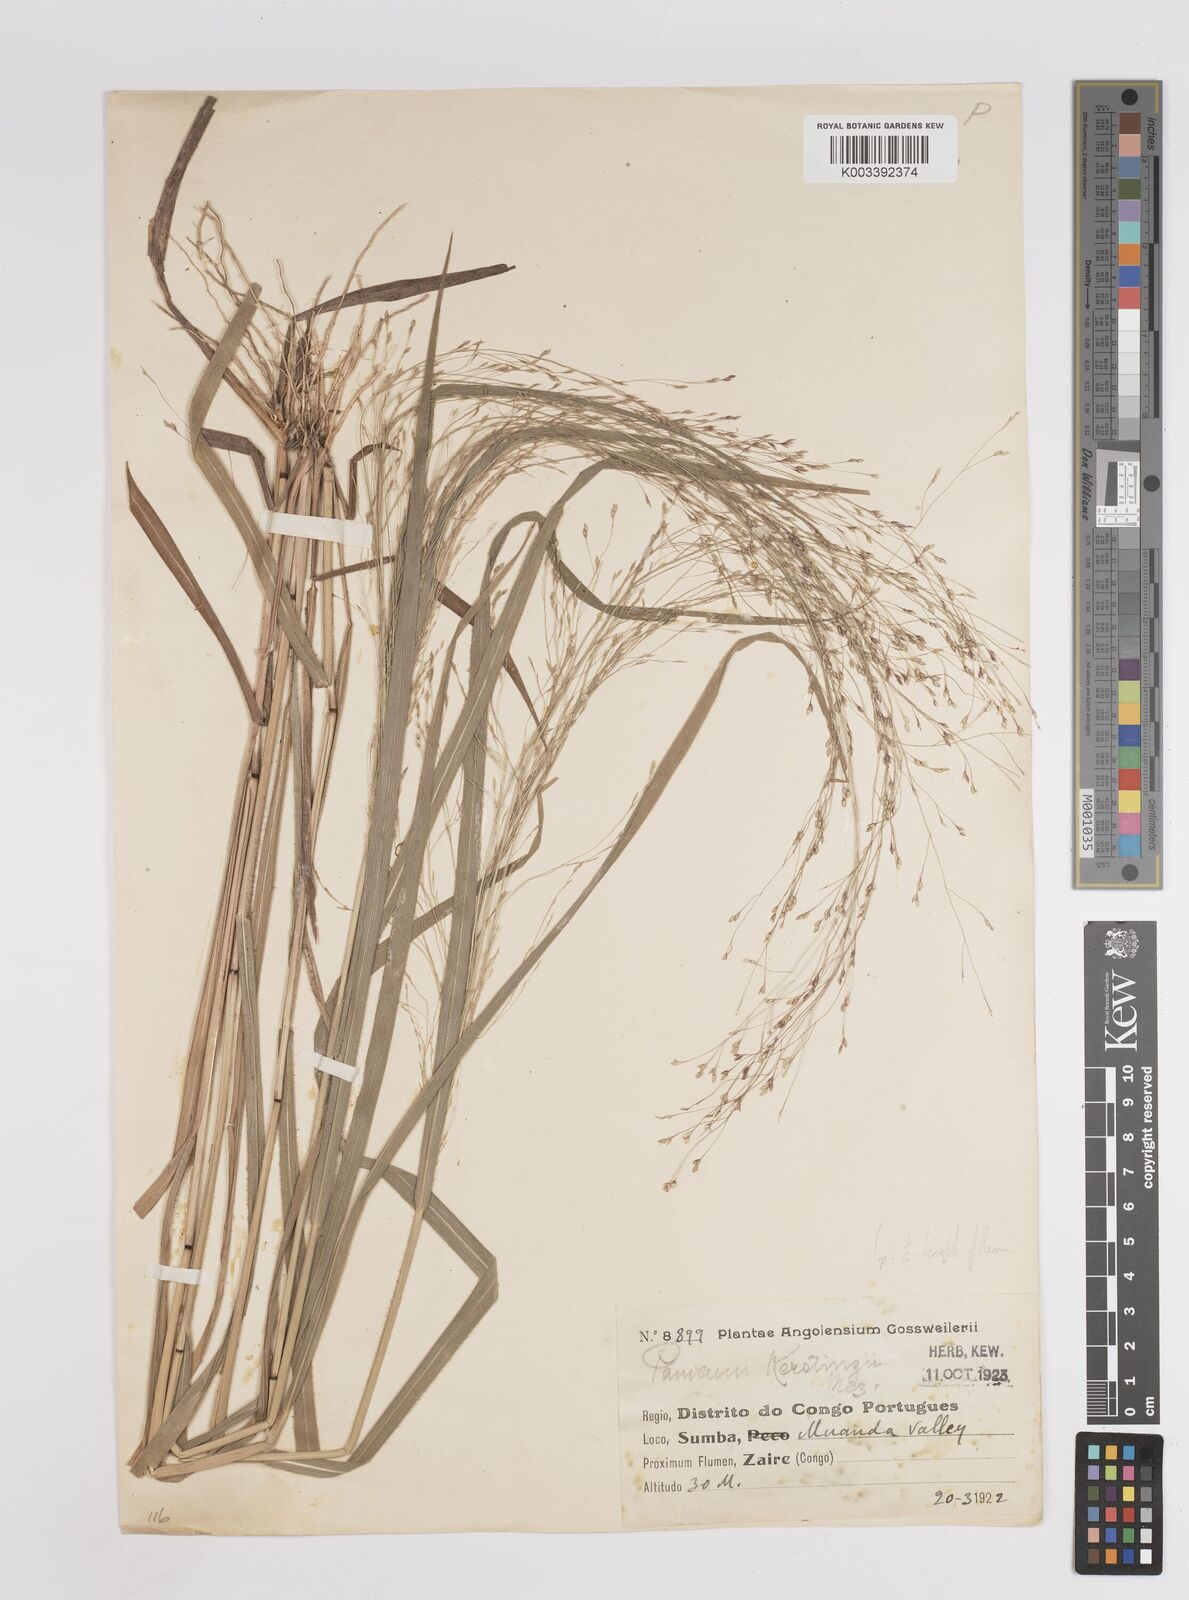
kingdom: Plantae
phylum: Tracheophyta
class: Liliopsida
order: Poales
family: Poaceae
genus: Panicum
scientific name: Panicum pansum
